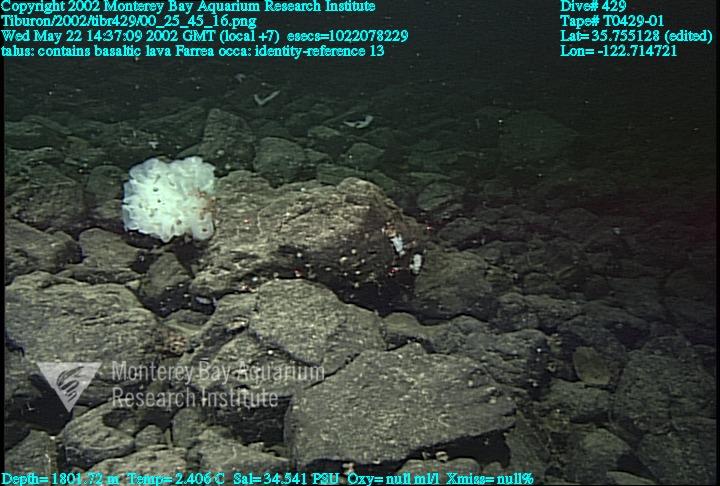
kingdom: Animalia
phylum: Porifera
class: Hexactinellida
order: Sceptrulophora
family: Farreidae
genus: Farrea
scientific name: Farrea occa
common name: Reversed glass sponge
